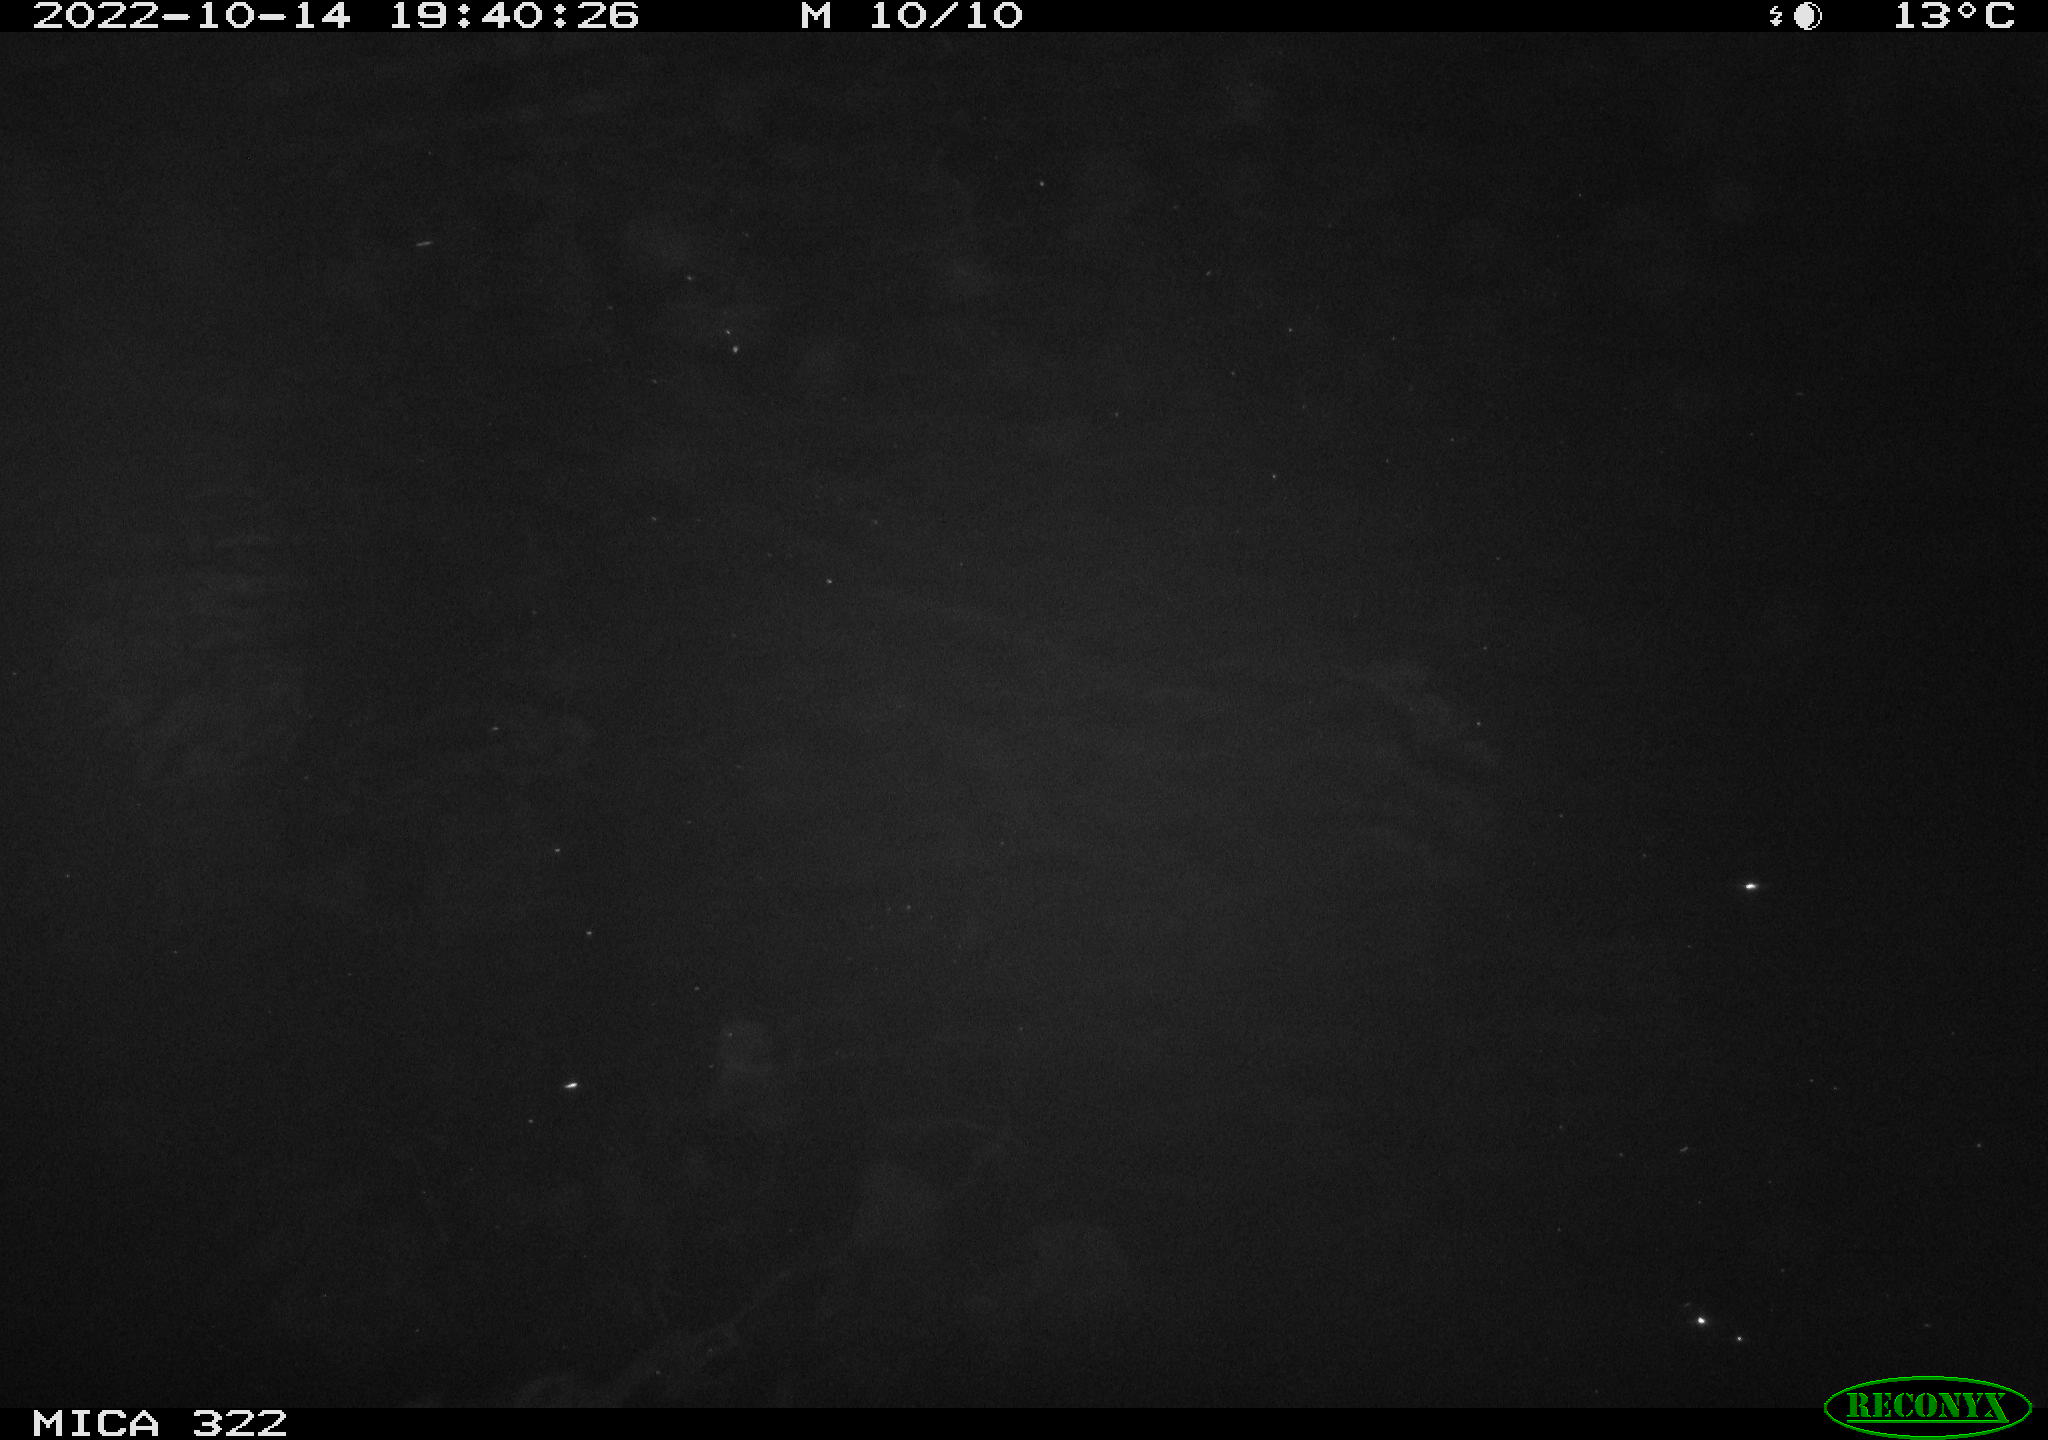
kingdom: Animalia
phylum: Chordata
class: Mammalia
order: Rodentia
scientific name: Rodentia
